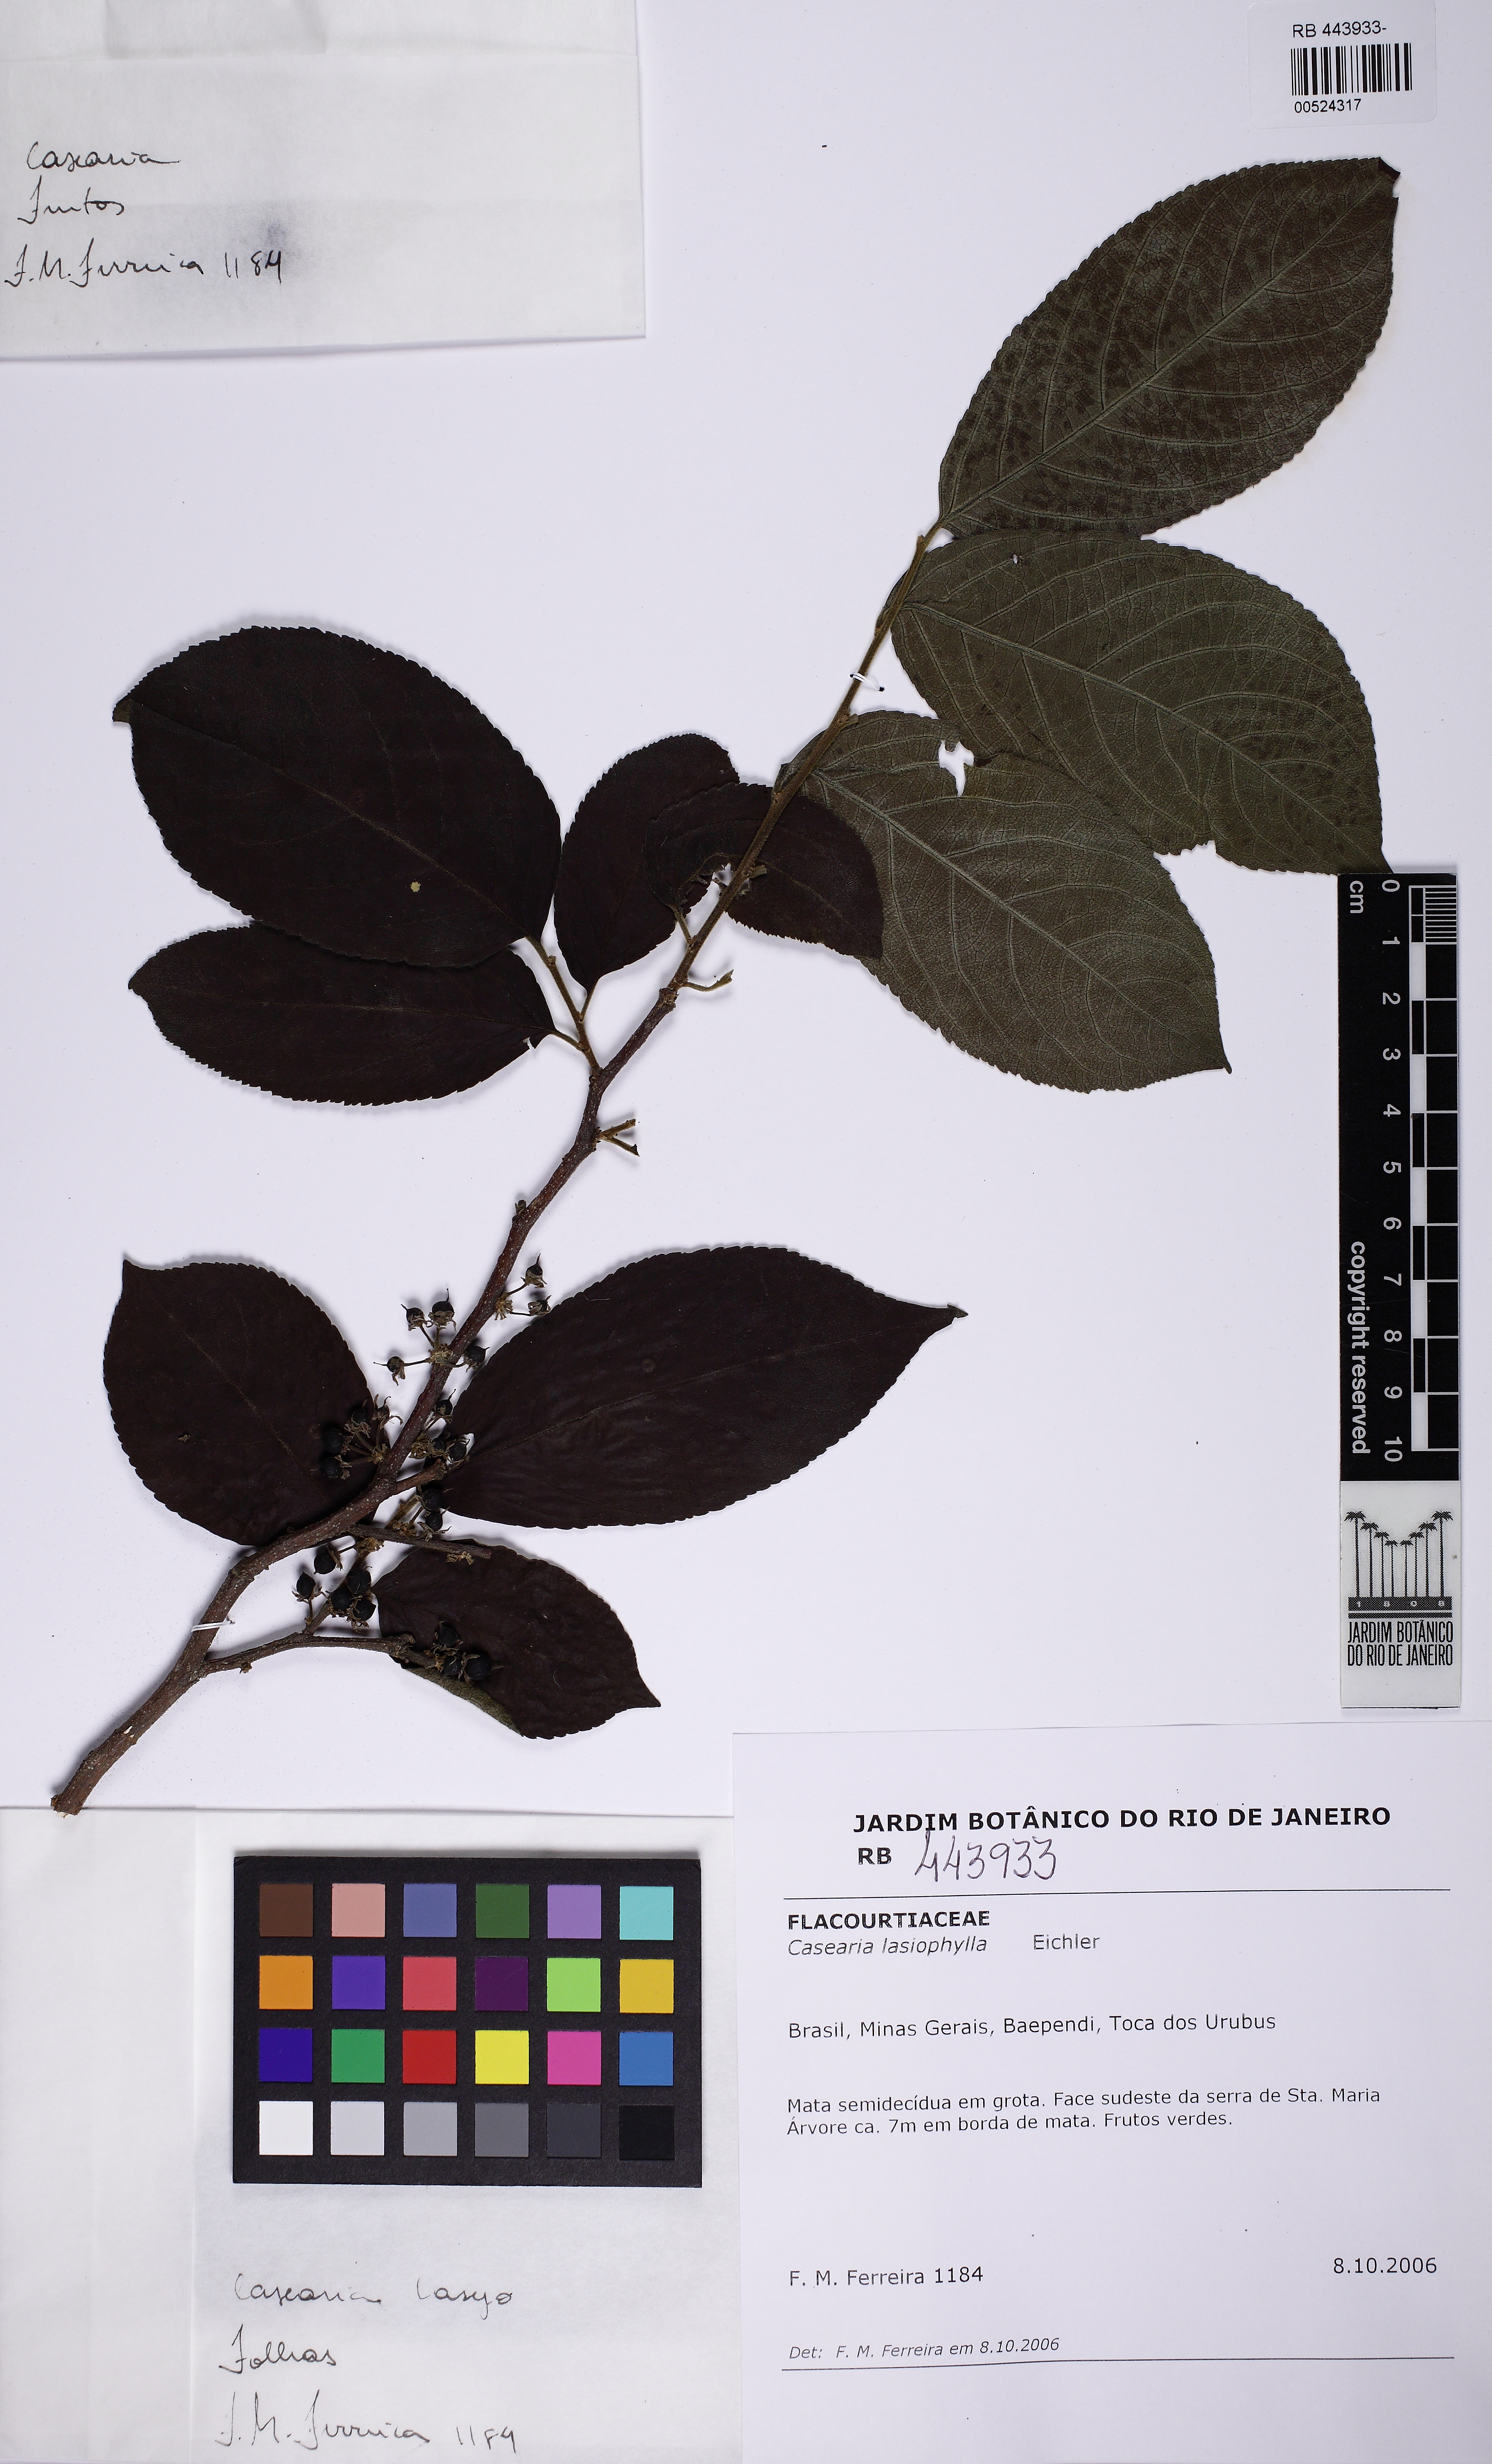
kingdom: Plantae
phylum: Tracheophyta
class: Magnoliopsida
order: Malpighiales
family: Salicaceae
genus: Casearia
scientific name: Casearia lasiophylla
